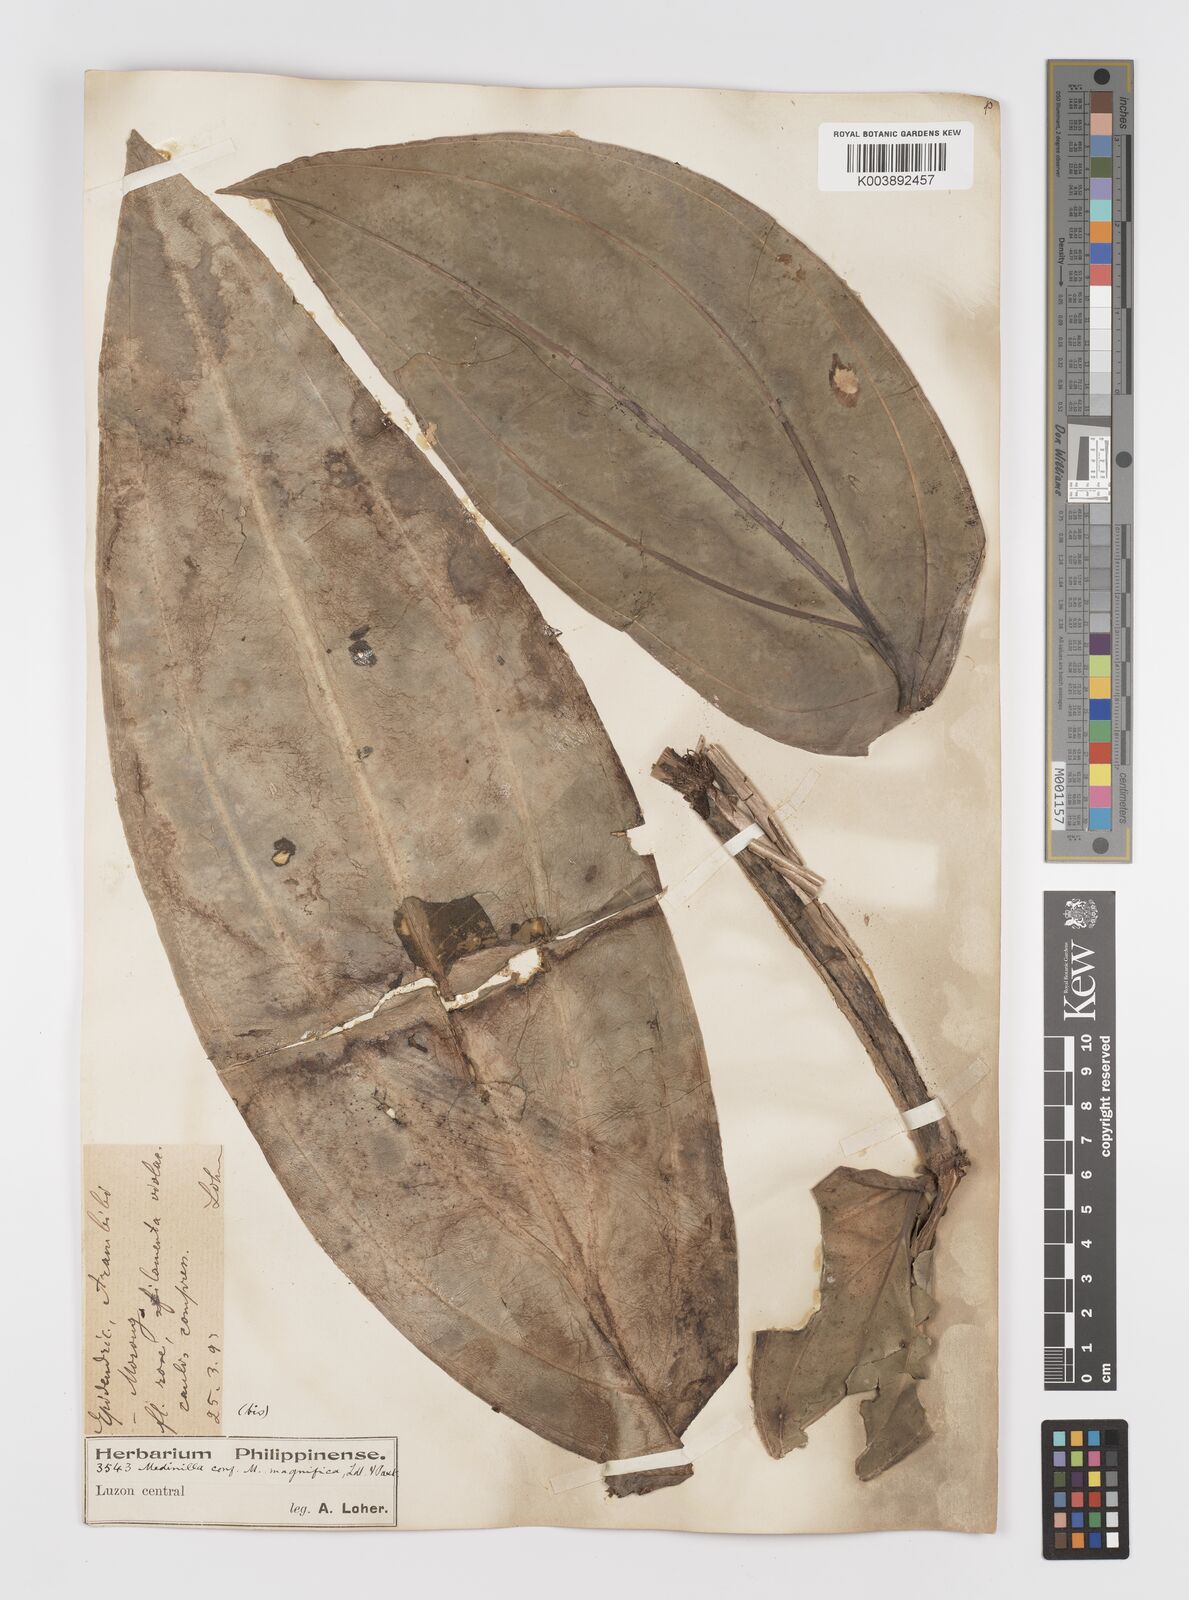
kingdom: Plantae
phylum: Tracheophyta
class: Magnoliopsida
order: Myrtales
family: Melastomataceae
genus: Medinilla
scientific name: Medinilla magnifica
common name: Showy medinilla
